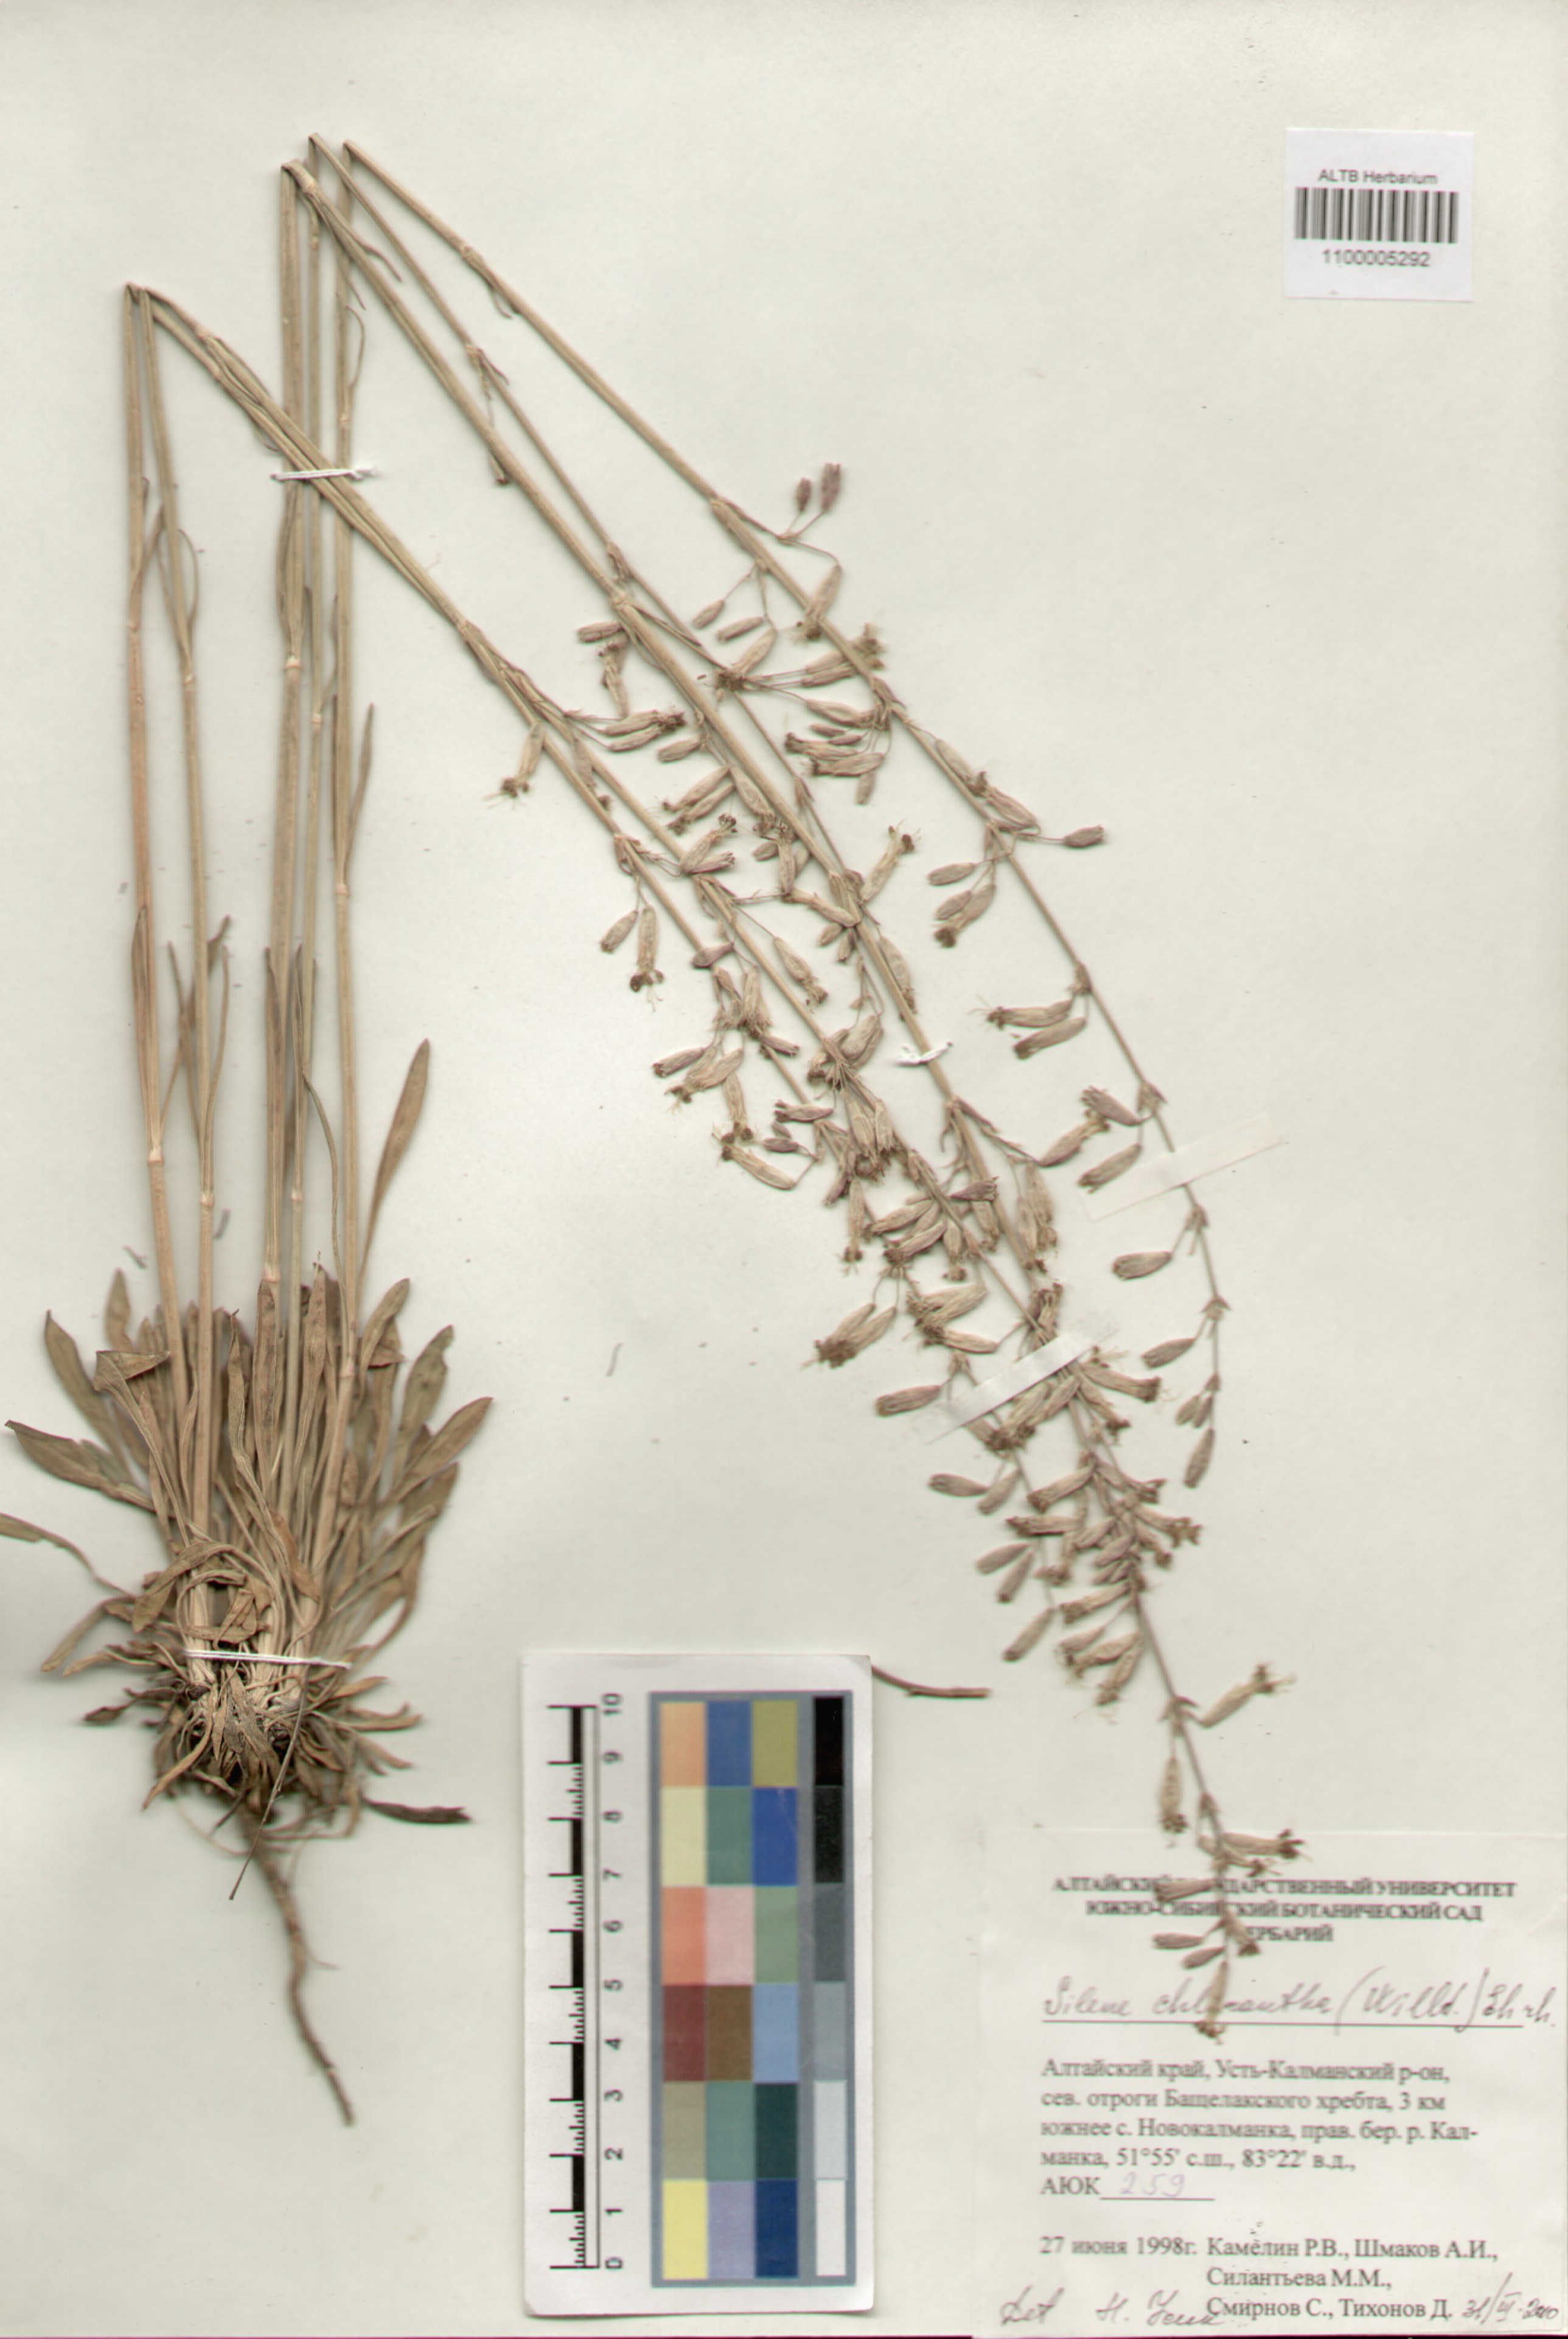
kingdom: Plantae
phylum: Tracheophyta
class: Magnoliopsida
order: Caryophyllales
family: Caryophyllaceae
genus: Silene
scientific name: Silene chlorantha
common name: Yellowgreen catchfly
